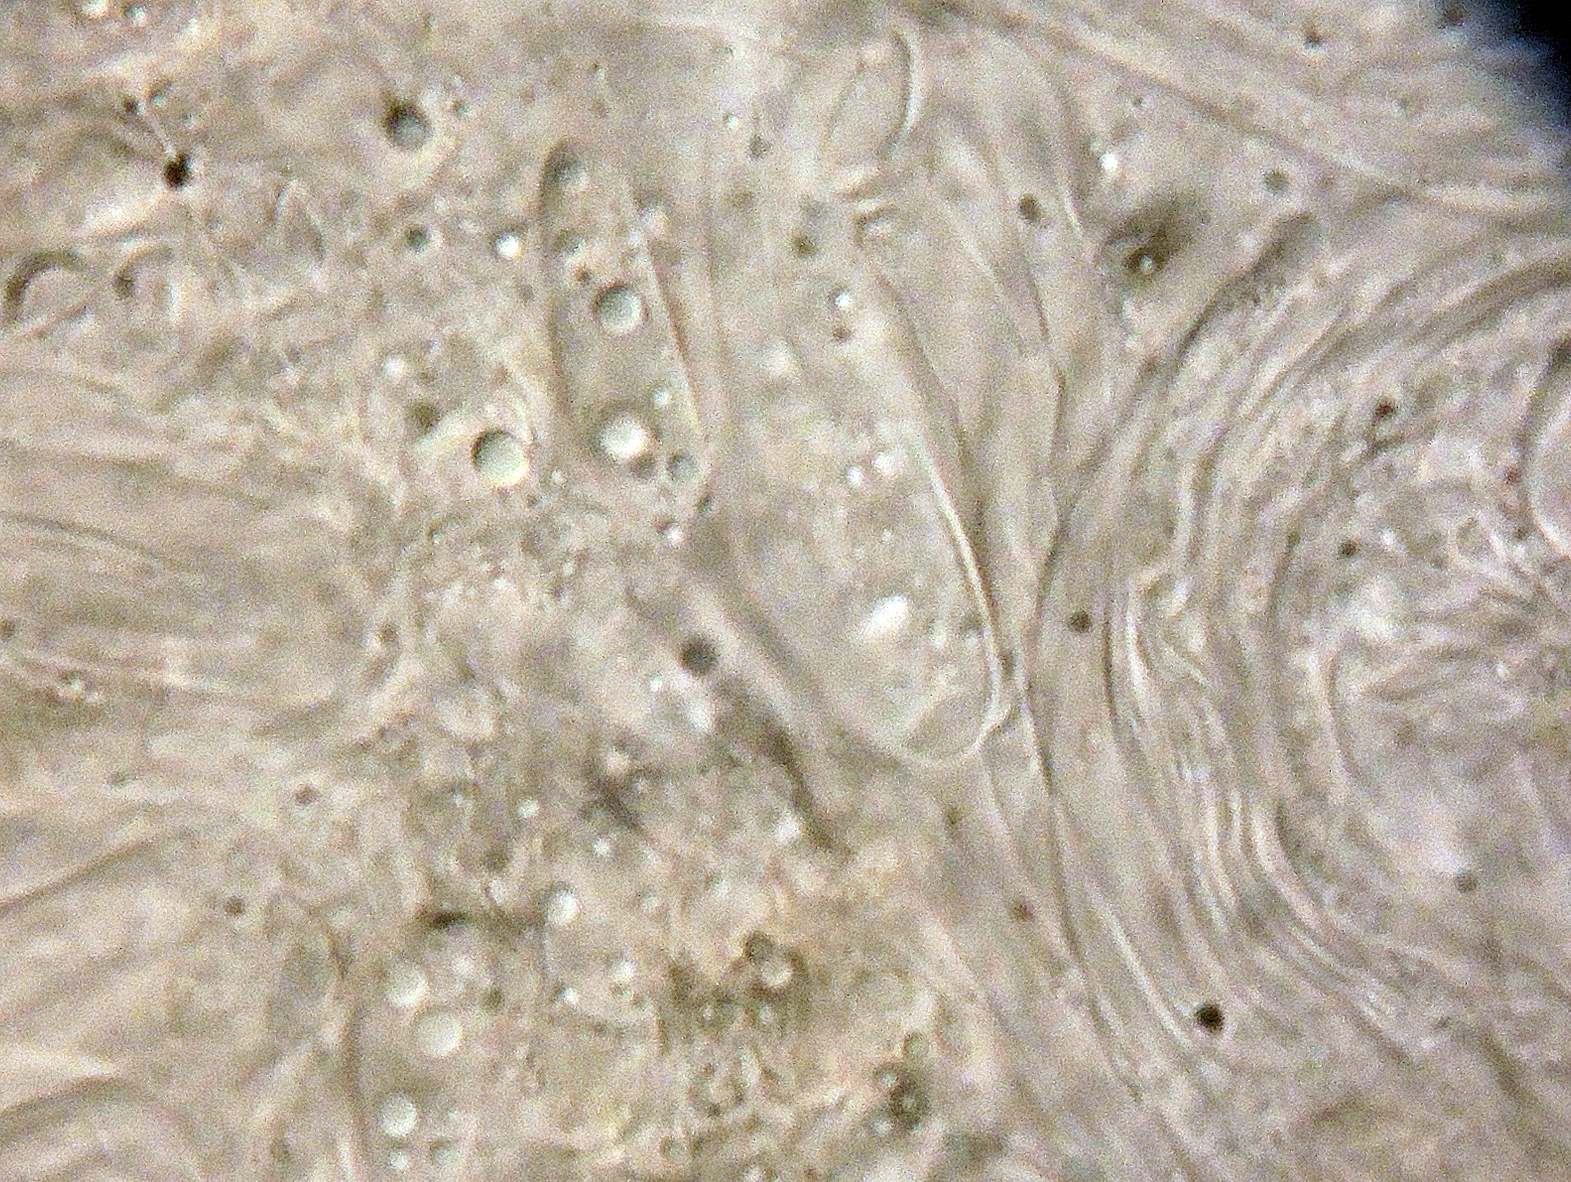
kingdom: Fungi
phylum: Ascomycota
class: Leotiomycetes
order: Helotiales
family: Drepanopezizaceae
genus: Leptotrochila
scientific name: Leptotrochila ranunculi
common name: ranunkel-bladskive
